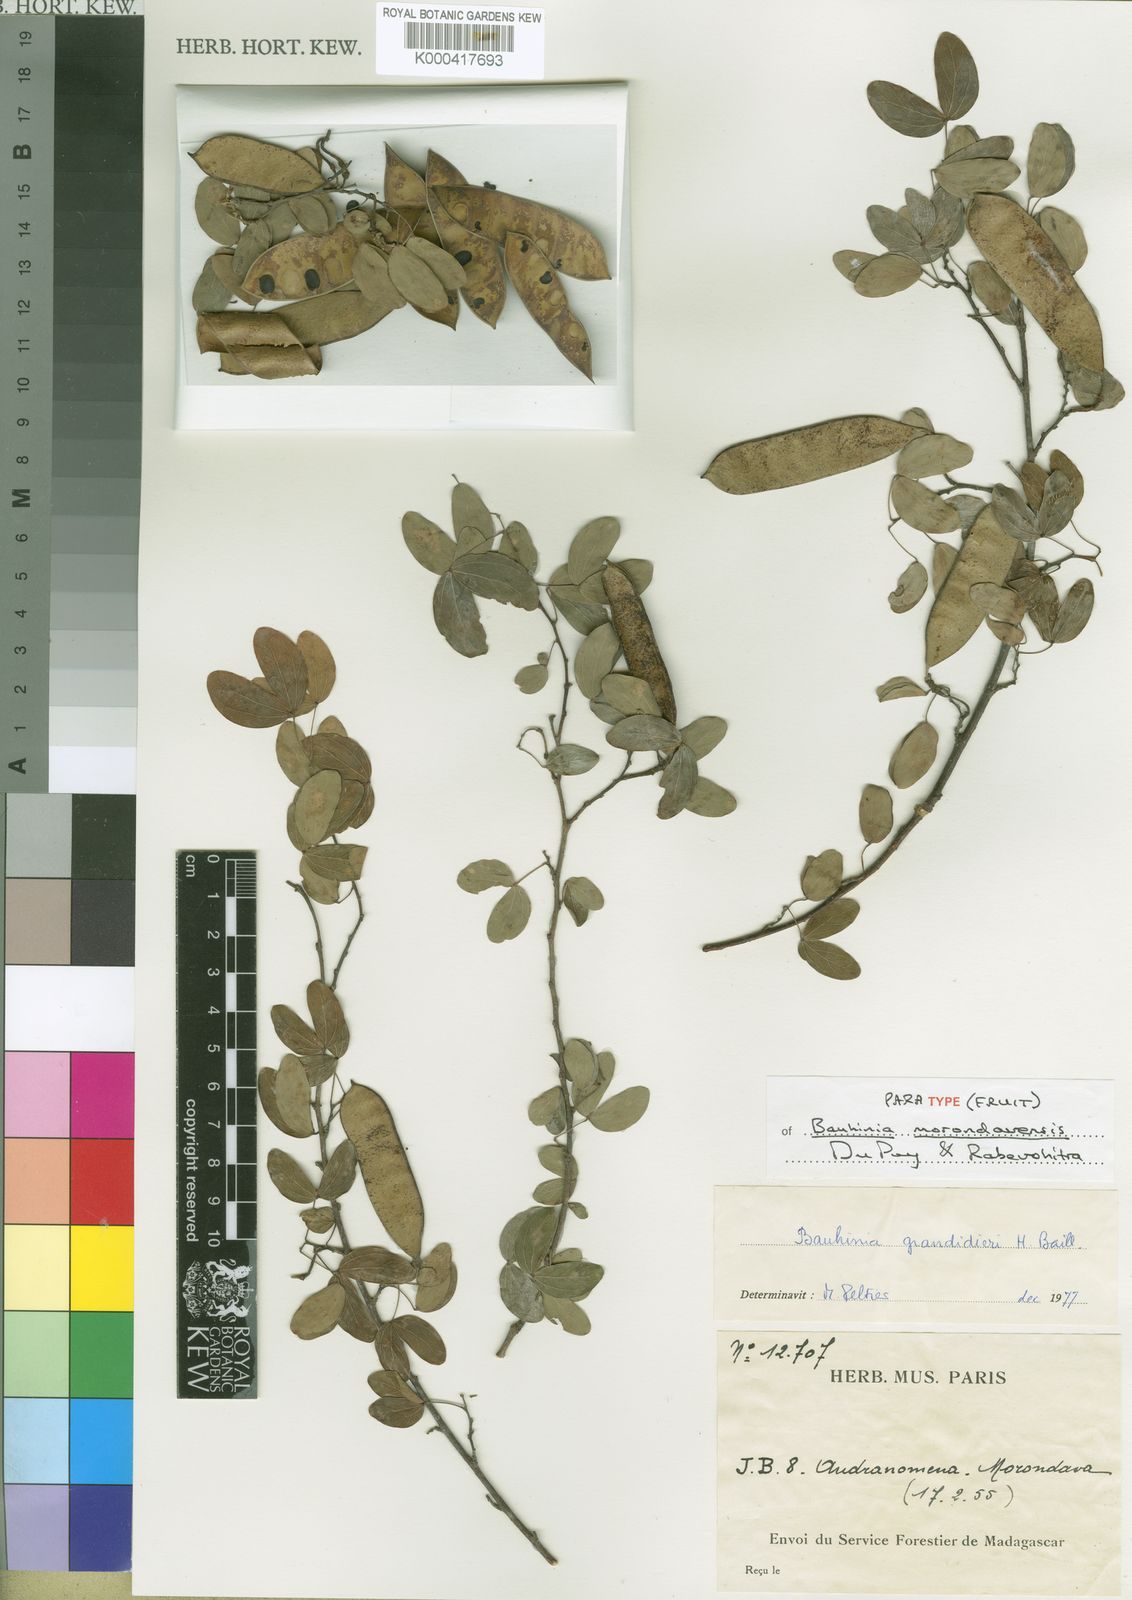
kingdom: Plantae
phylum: Tracheophyta
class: Magnoliopsida
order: Fabales
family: Fabaceae
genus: Bauhinia
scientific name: Bauhinia morondavensis
